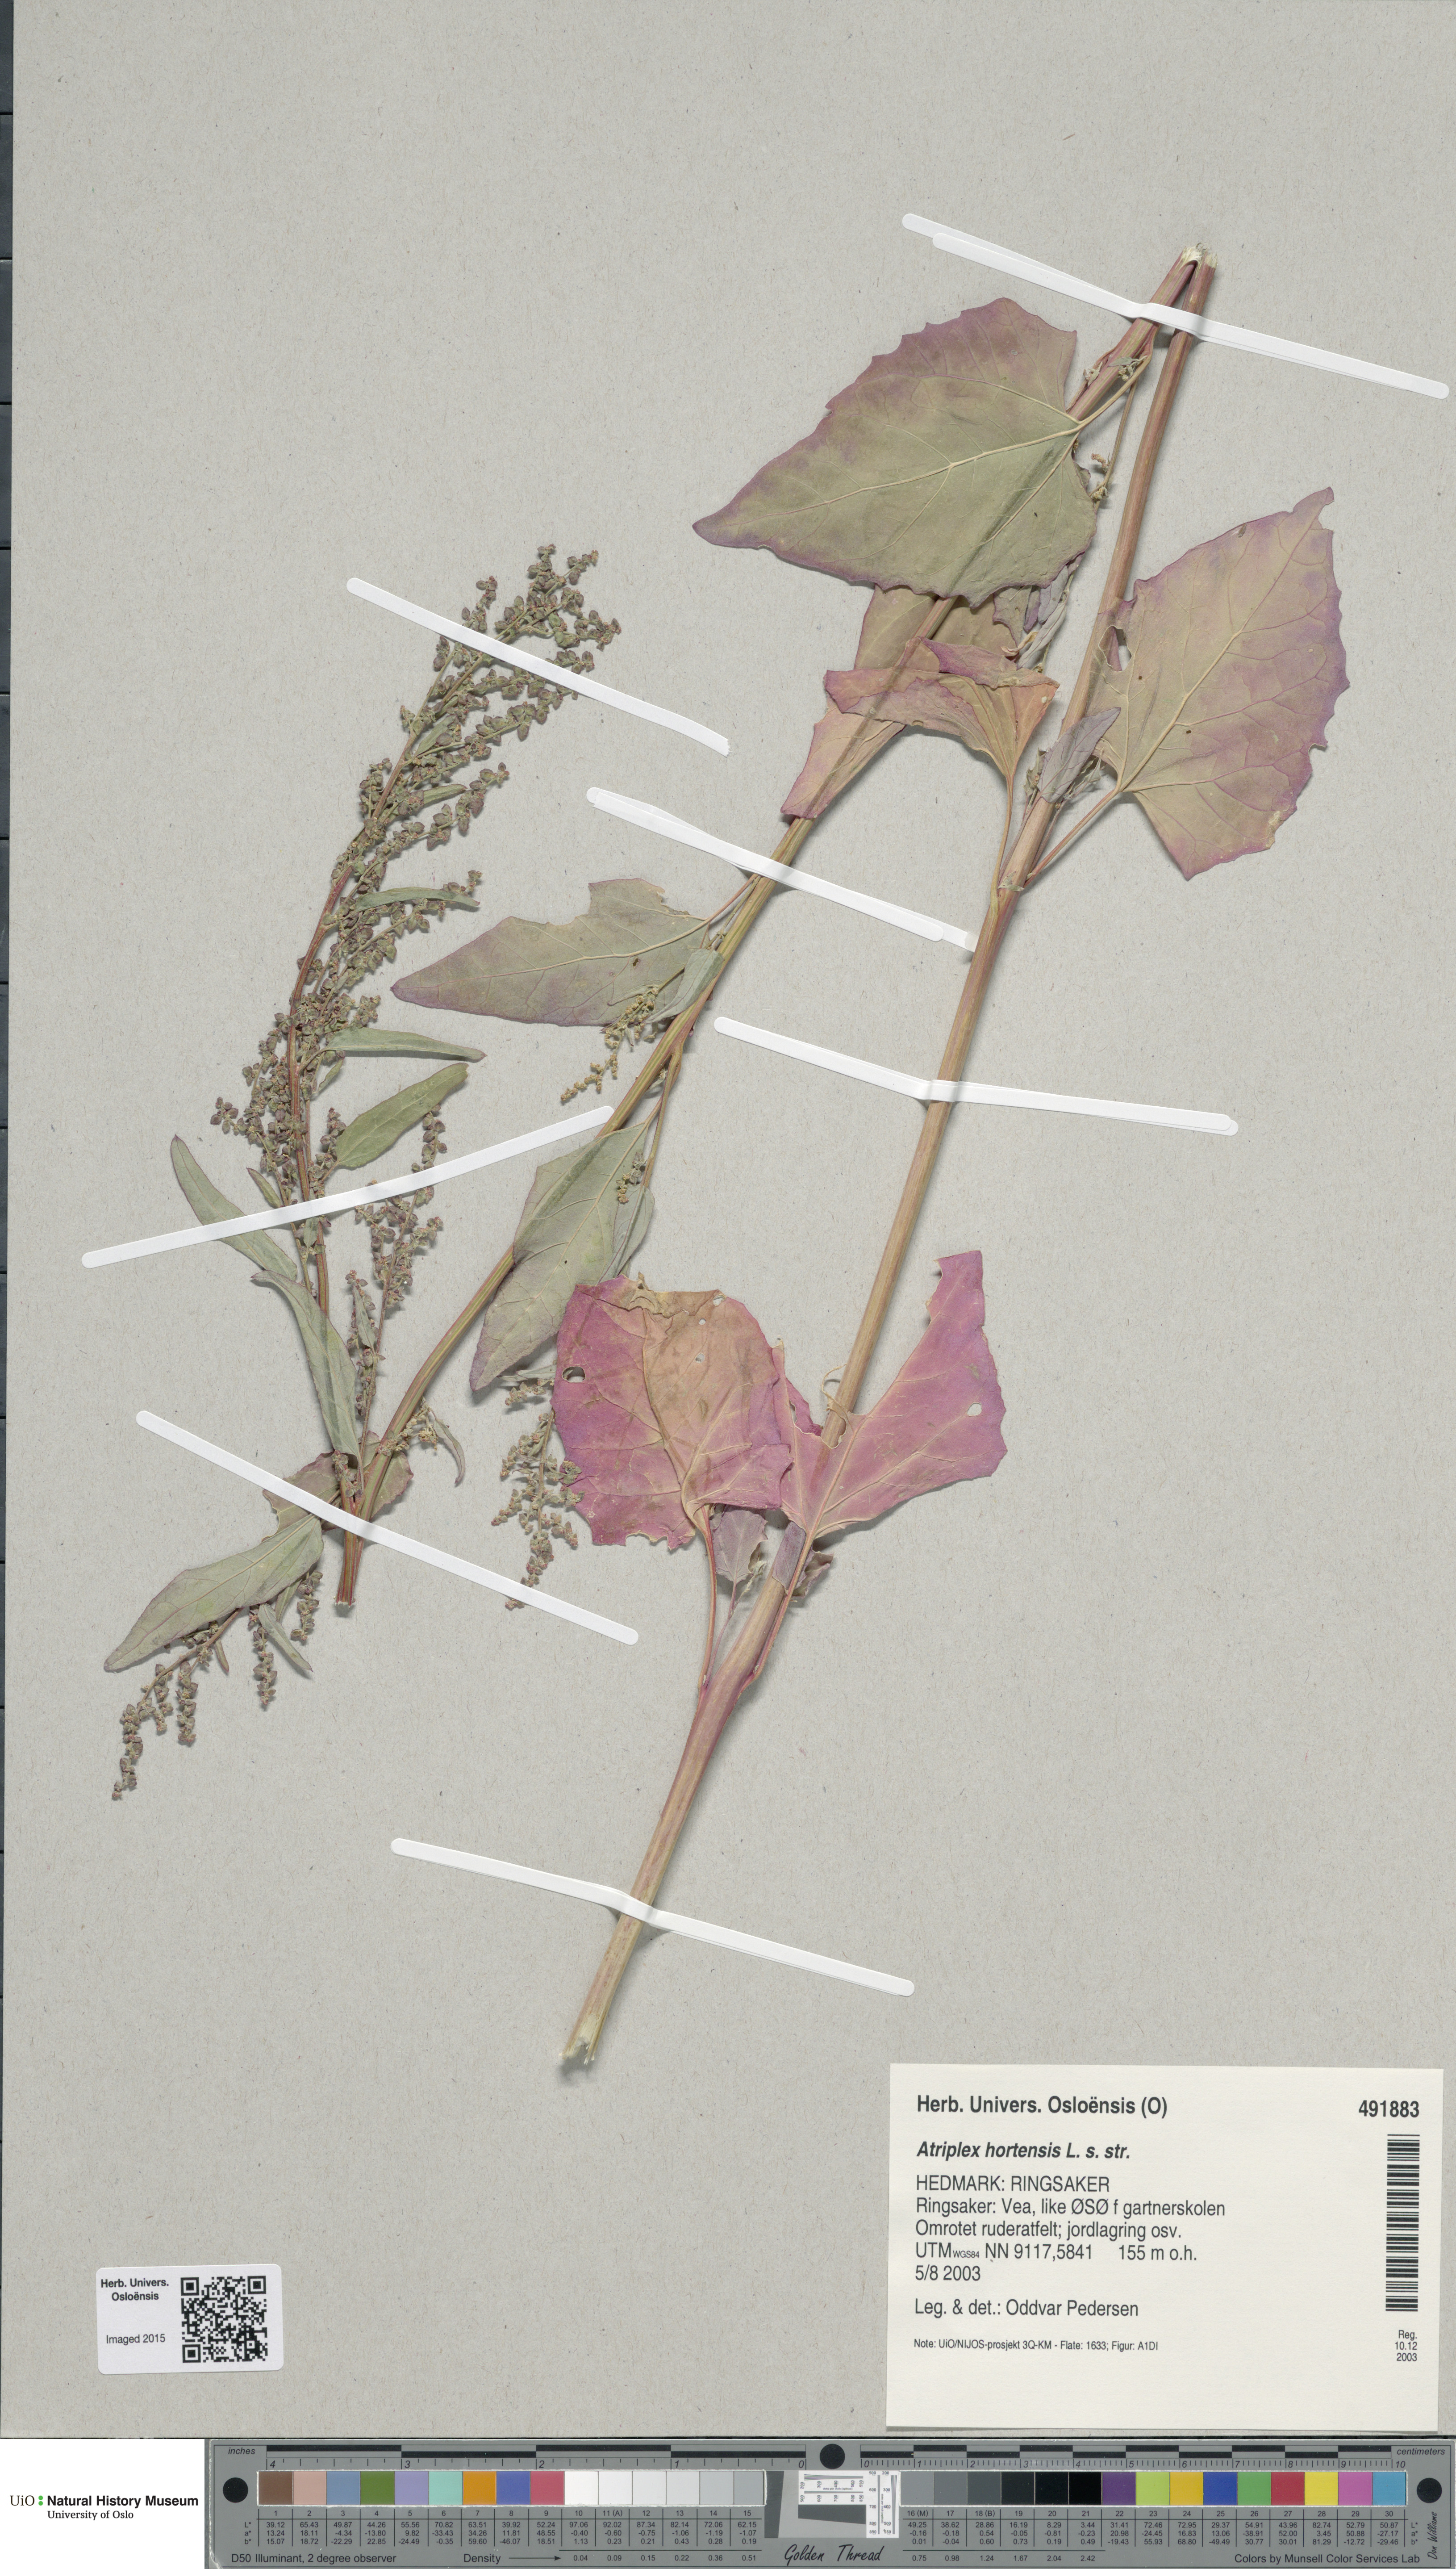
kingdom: Plantae
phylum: Tracheophyta
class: Magnoliopsida
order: Caryophyllales
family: Amaranthaceae
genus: Atriplex
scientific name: Atriplex hortensis
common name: Garden orache
